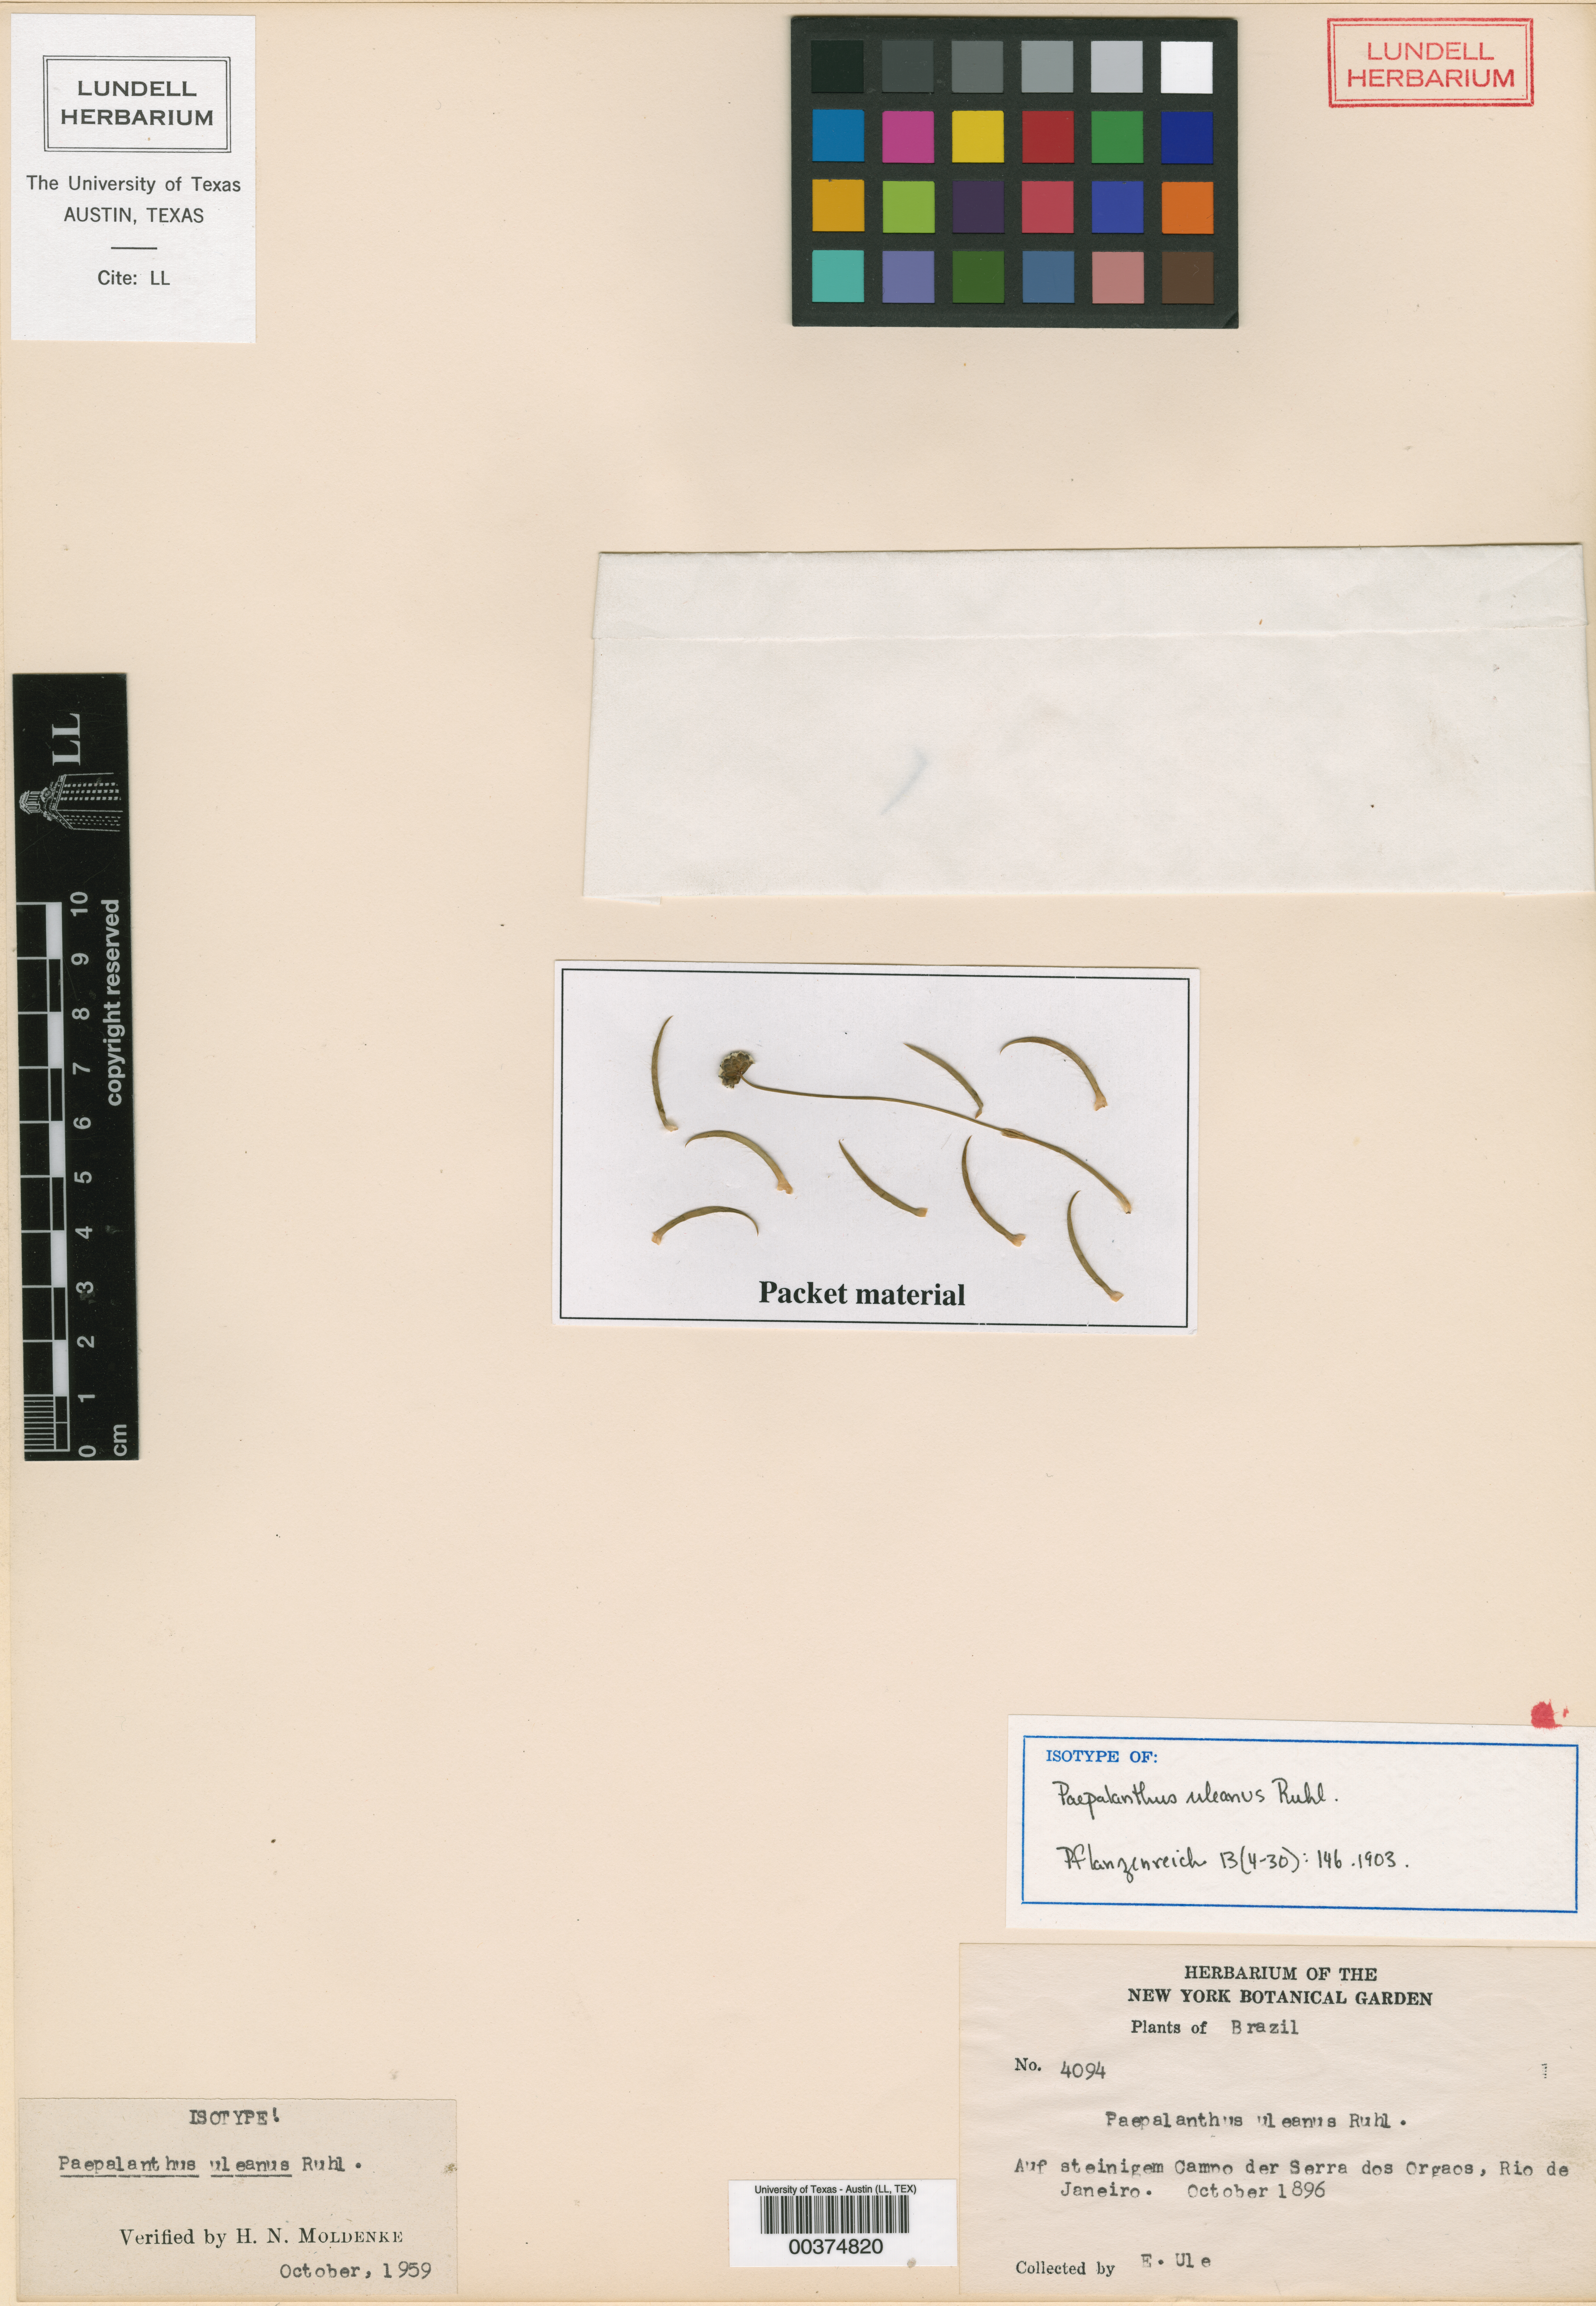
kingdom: Plantae
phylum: Tracheophyta
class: Liliopsida
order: Poales
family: Eriocaulaceae
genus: Paepalanthus
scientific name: Paepalanthus uleanus
